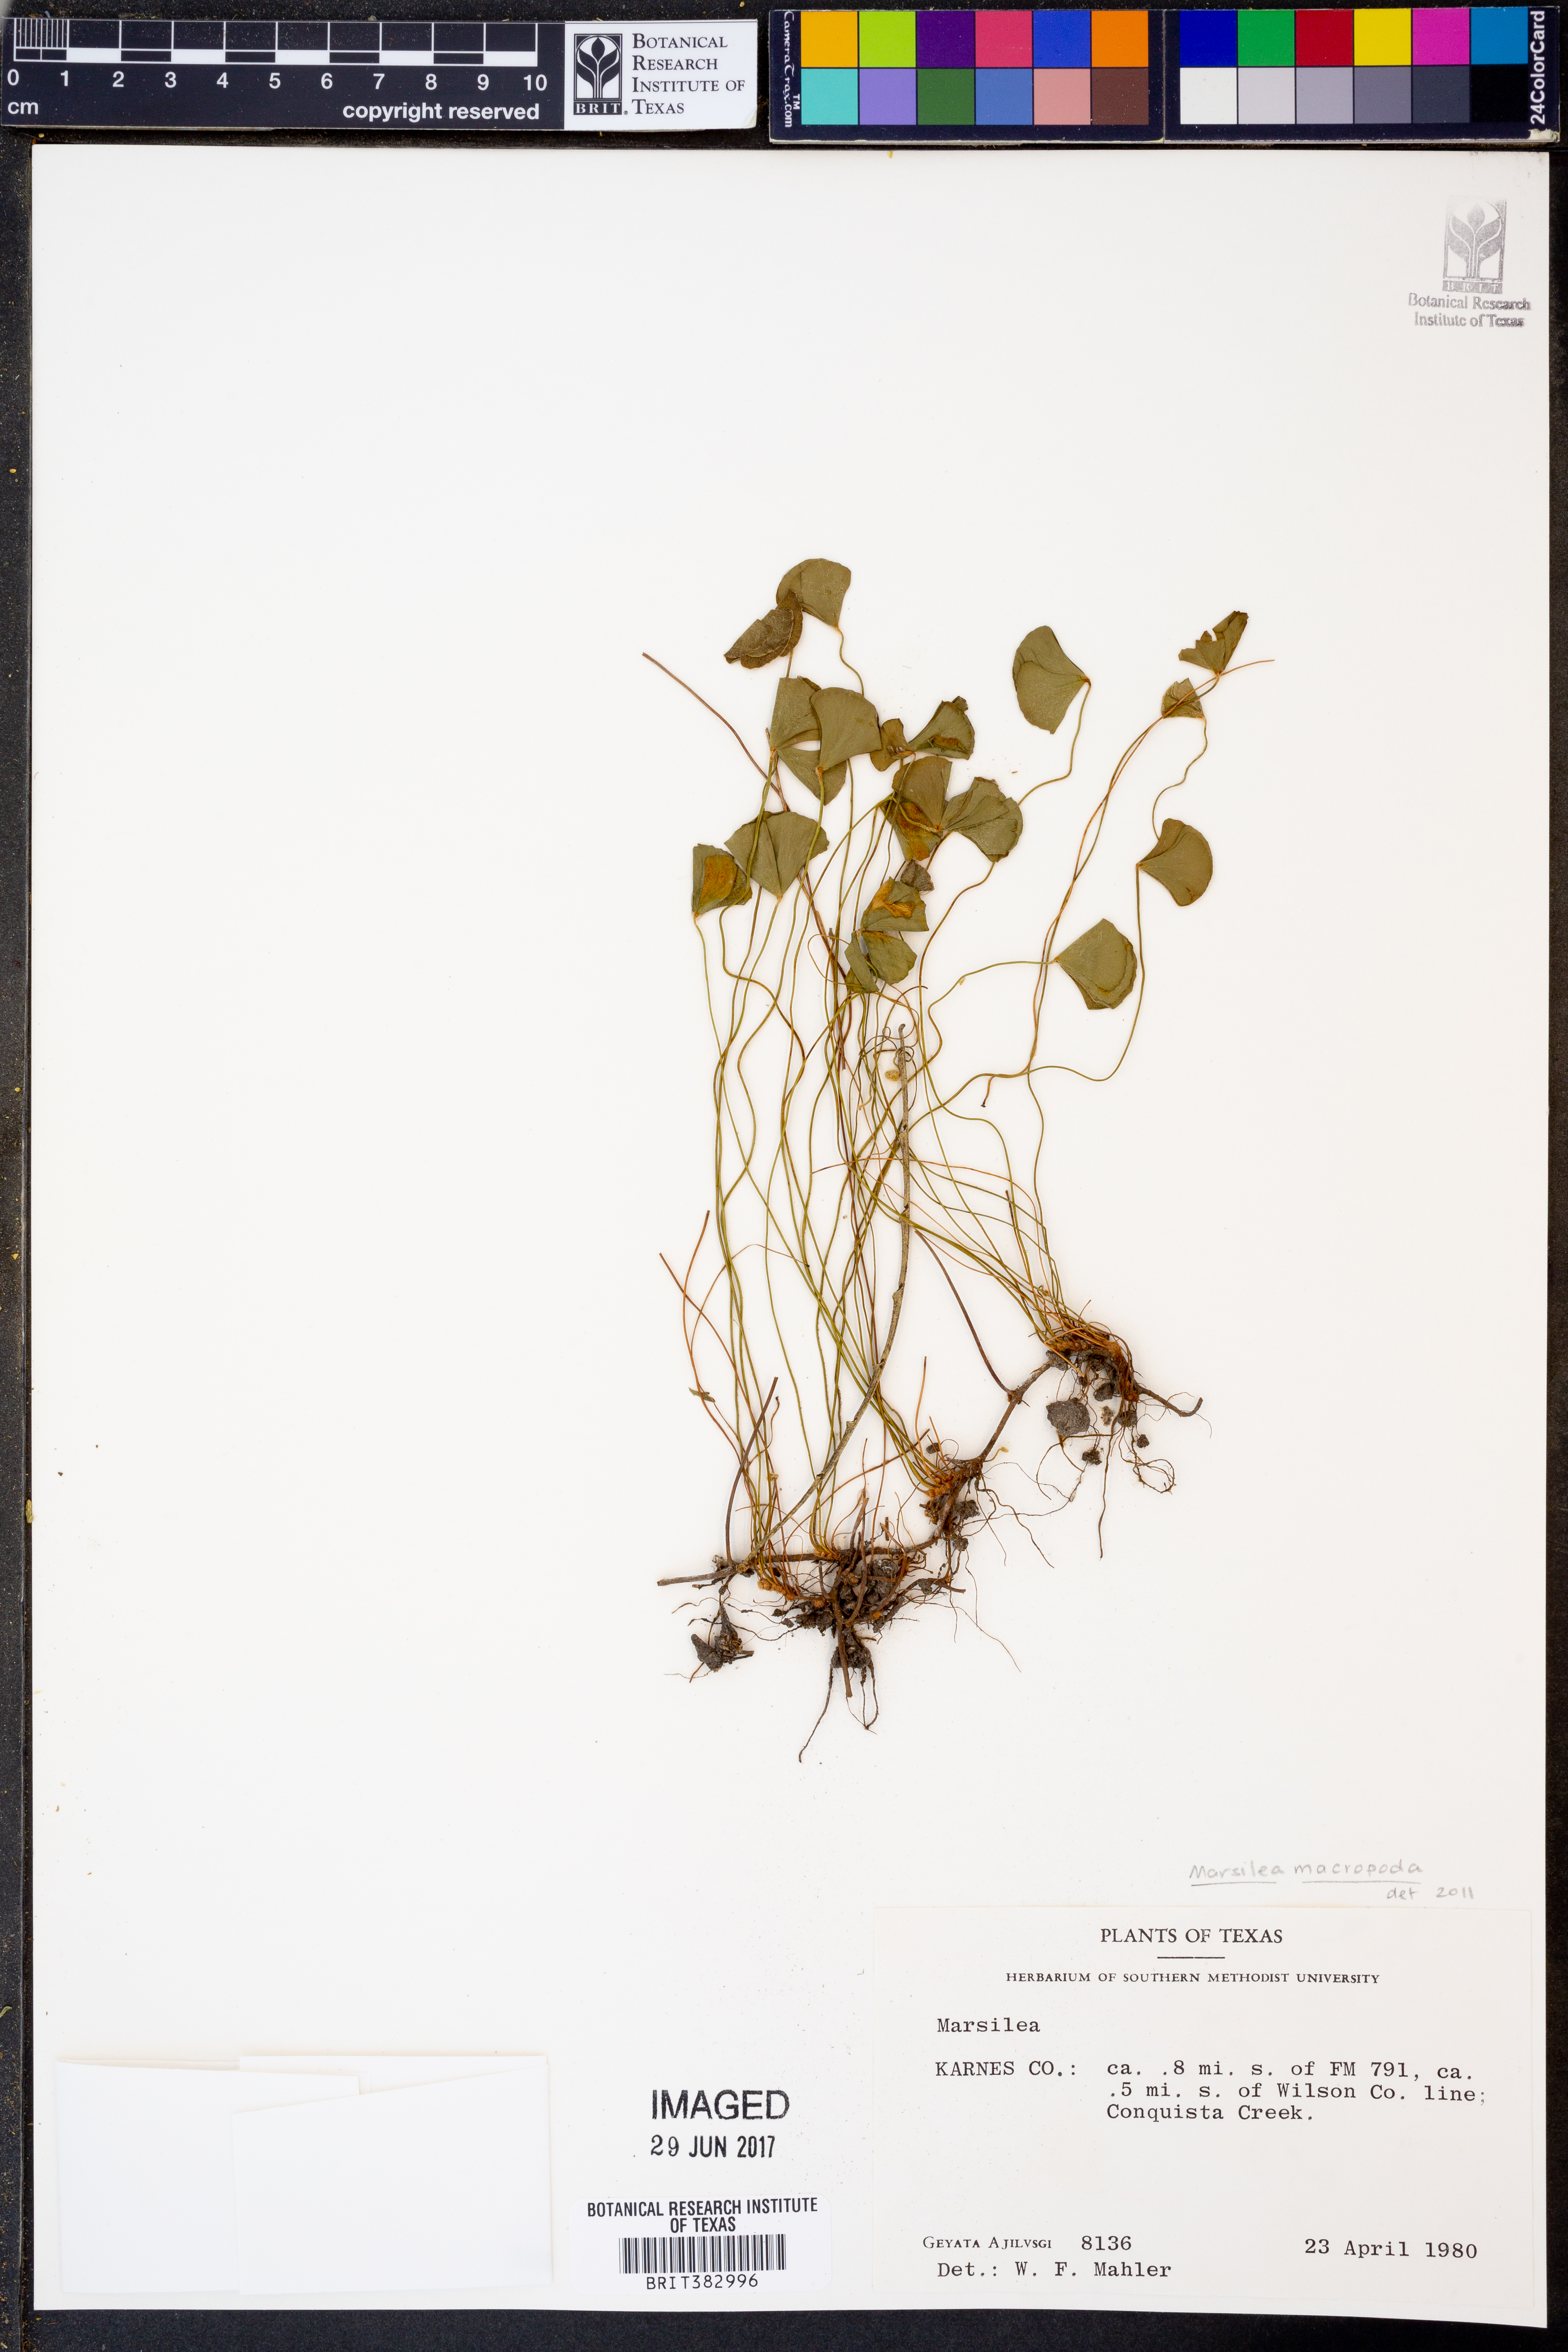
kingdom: Plantae
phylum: Tracheophyta
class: Polypodiopsida
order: Salviniales
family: Marsileaceae
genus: Marsilea
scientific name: Marsilea macropoda
